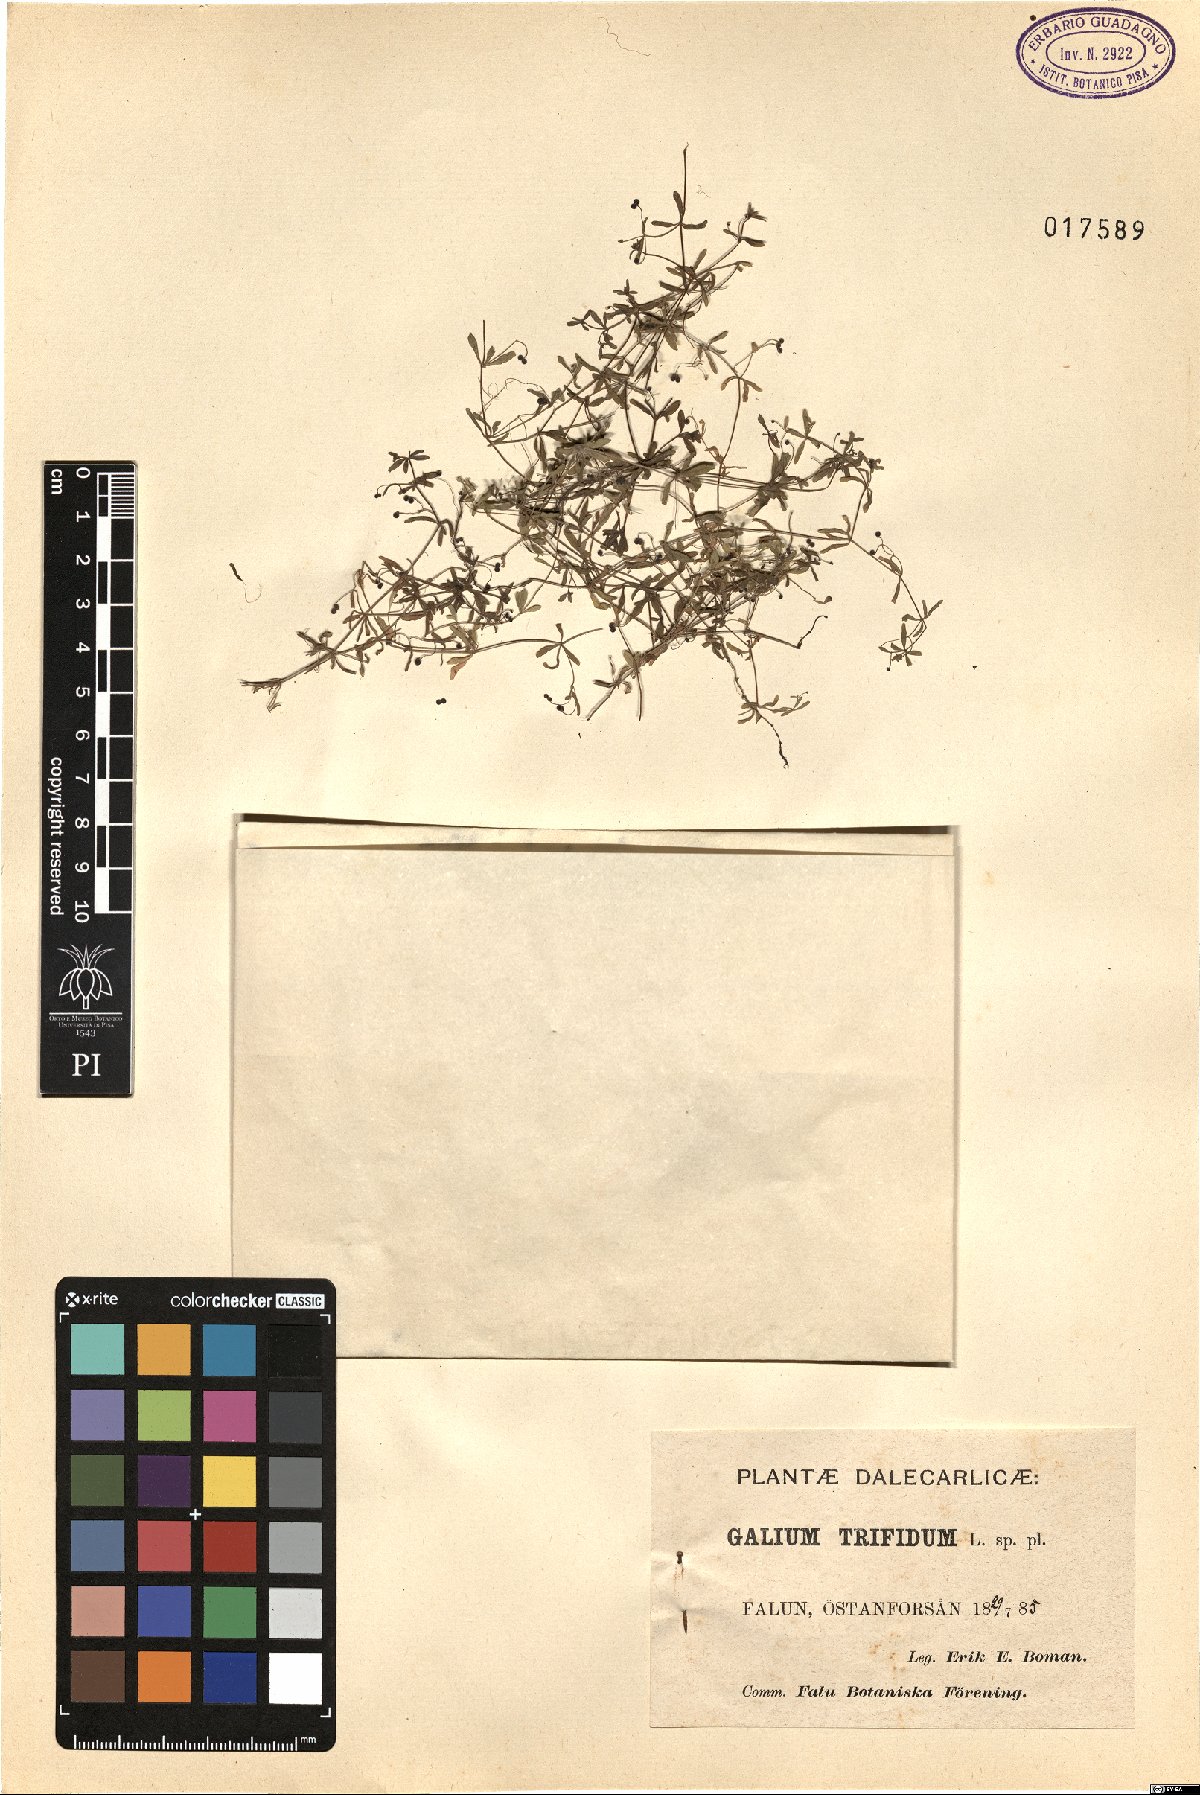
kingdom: Plantae
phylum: Tracheophyta
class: Magnoliopsida
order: Gentianales
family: Rubiaceae
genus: Galium
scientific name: Galium trifidum
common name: Small bedstraw
